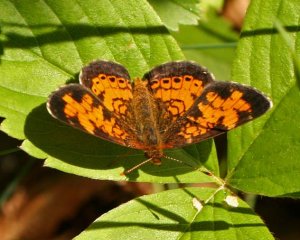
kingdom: Animalia
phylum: Arthropoda
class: Insecta
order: Lepidoptera
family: Nymphalidae
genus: Phyciodes
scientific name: Phyciodes tharos
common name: Northern Crescent
